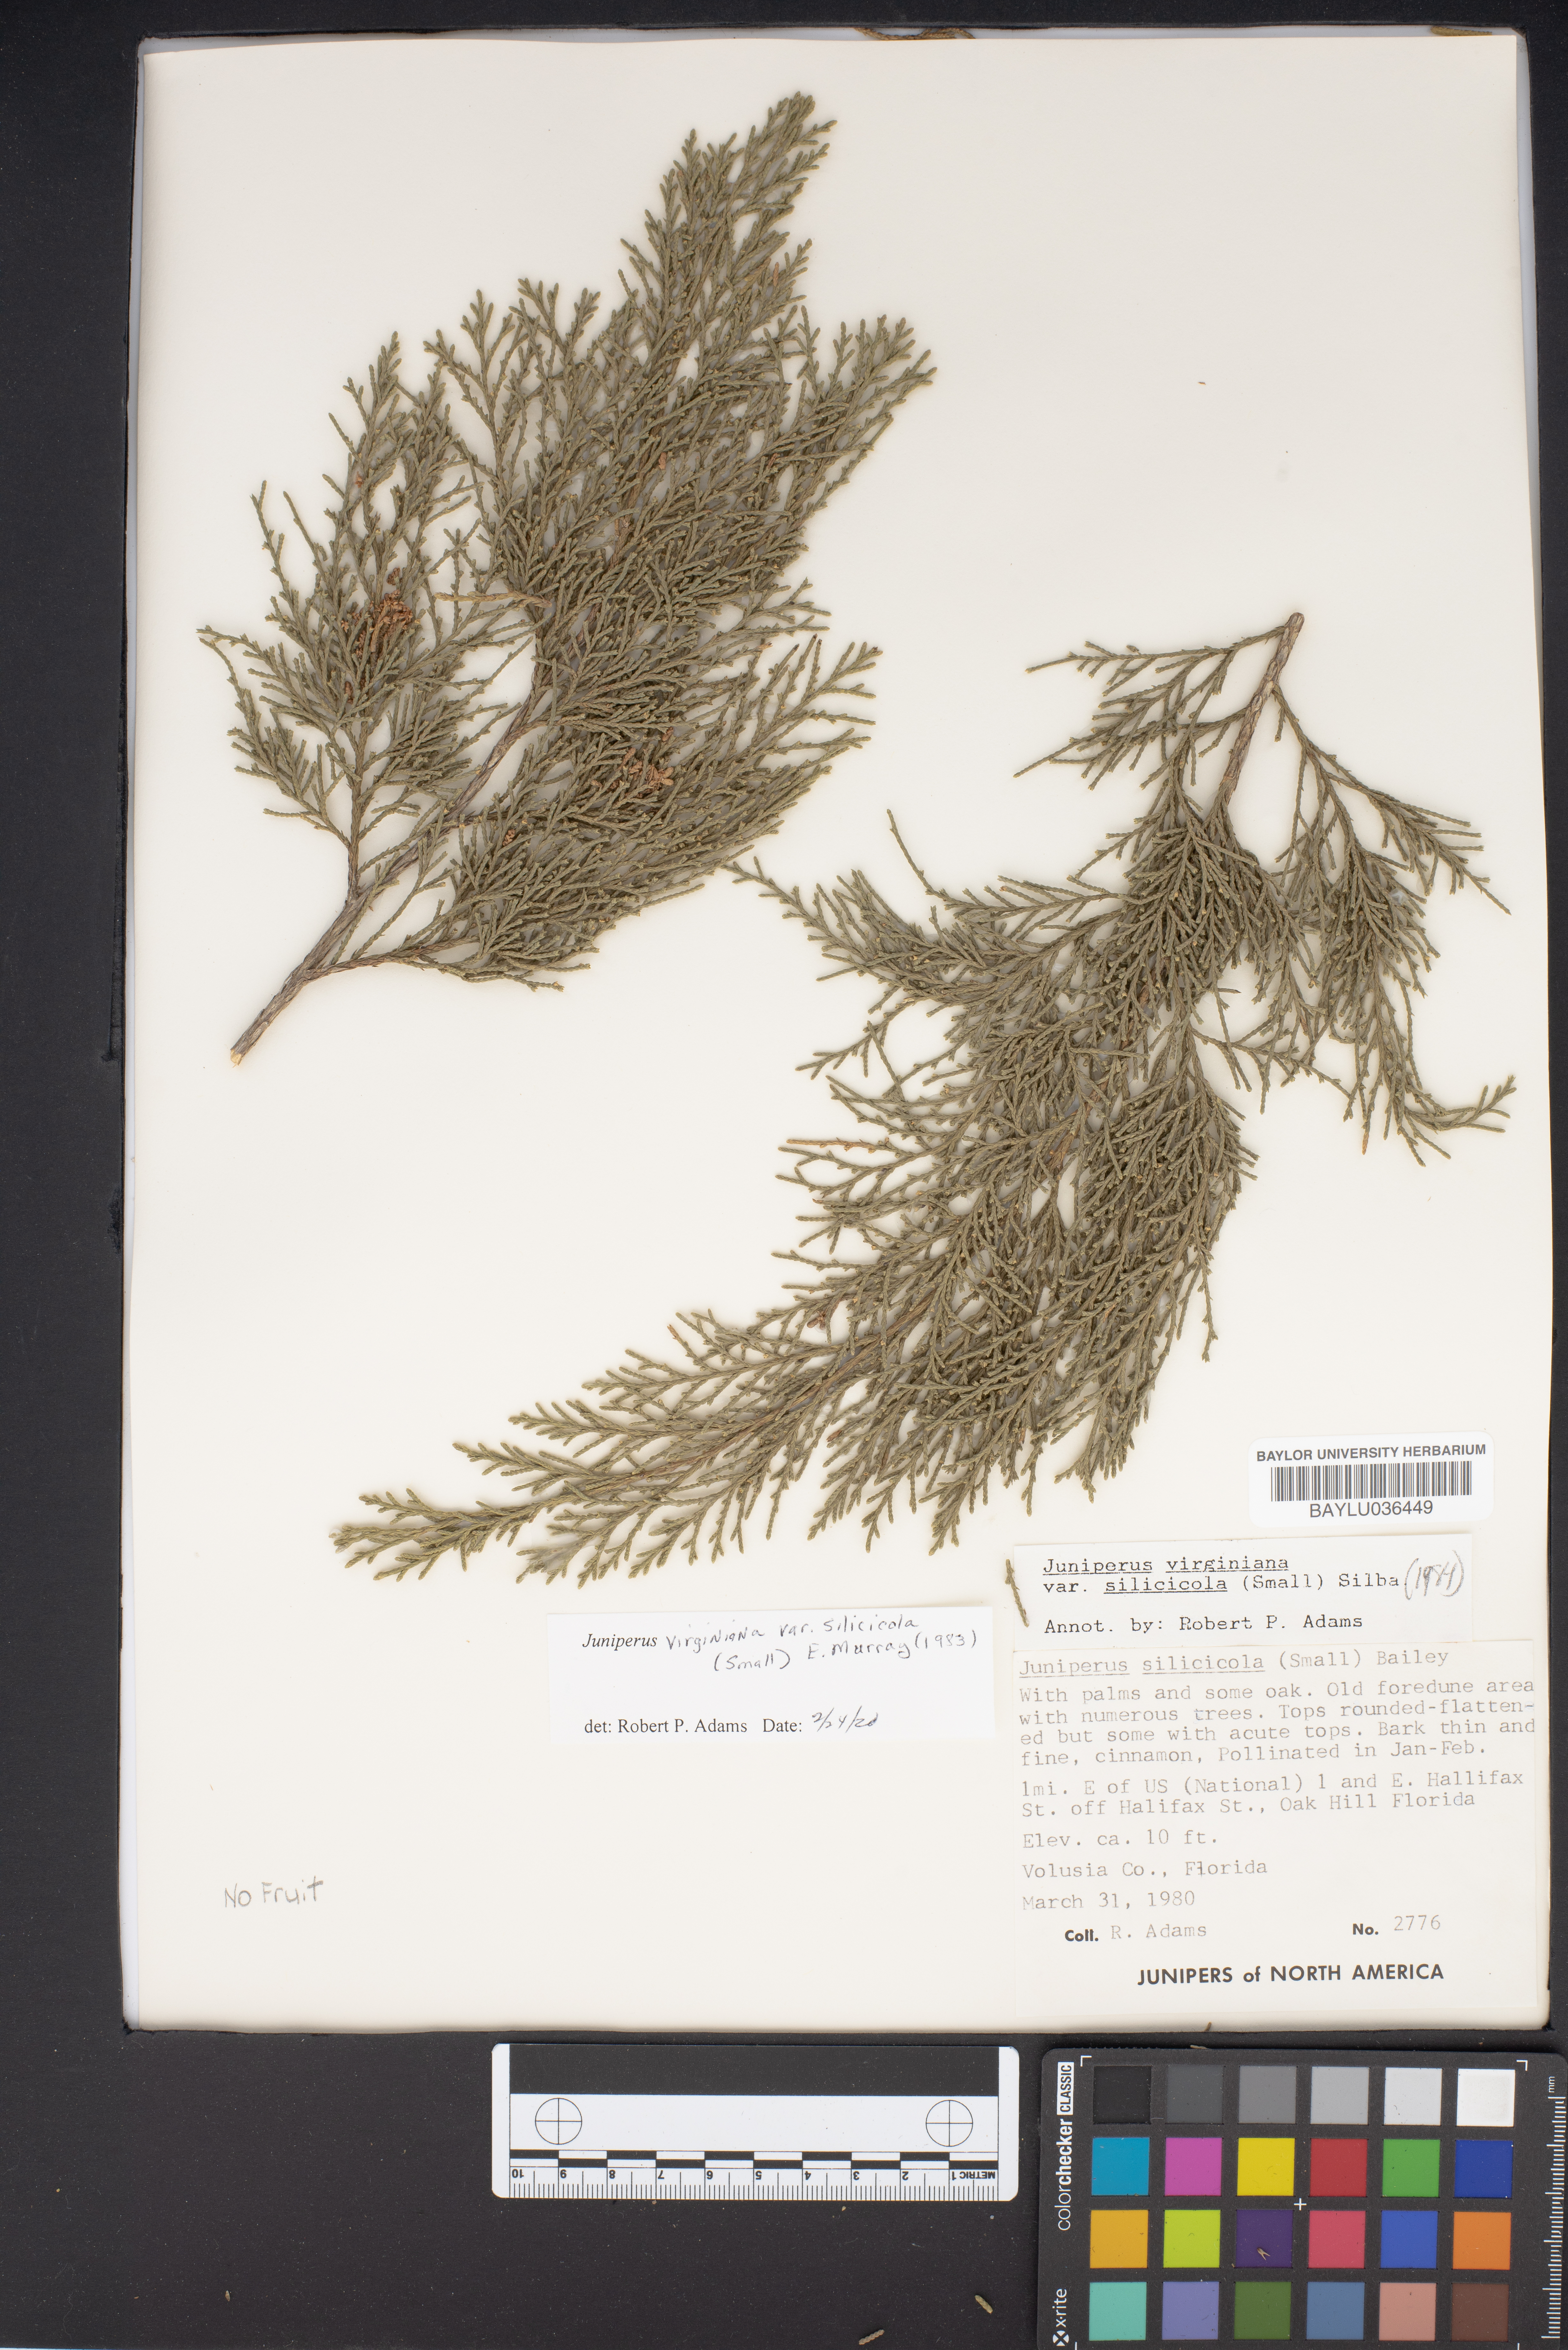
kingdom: Plantae
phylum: Tracheophyta
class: Pinopsida
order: Pinales
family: Cupressaceae
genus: Juniperus
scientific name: Juniperus virginiana
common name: Red juniper
